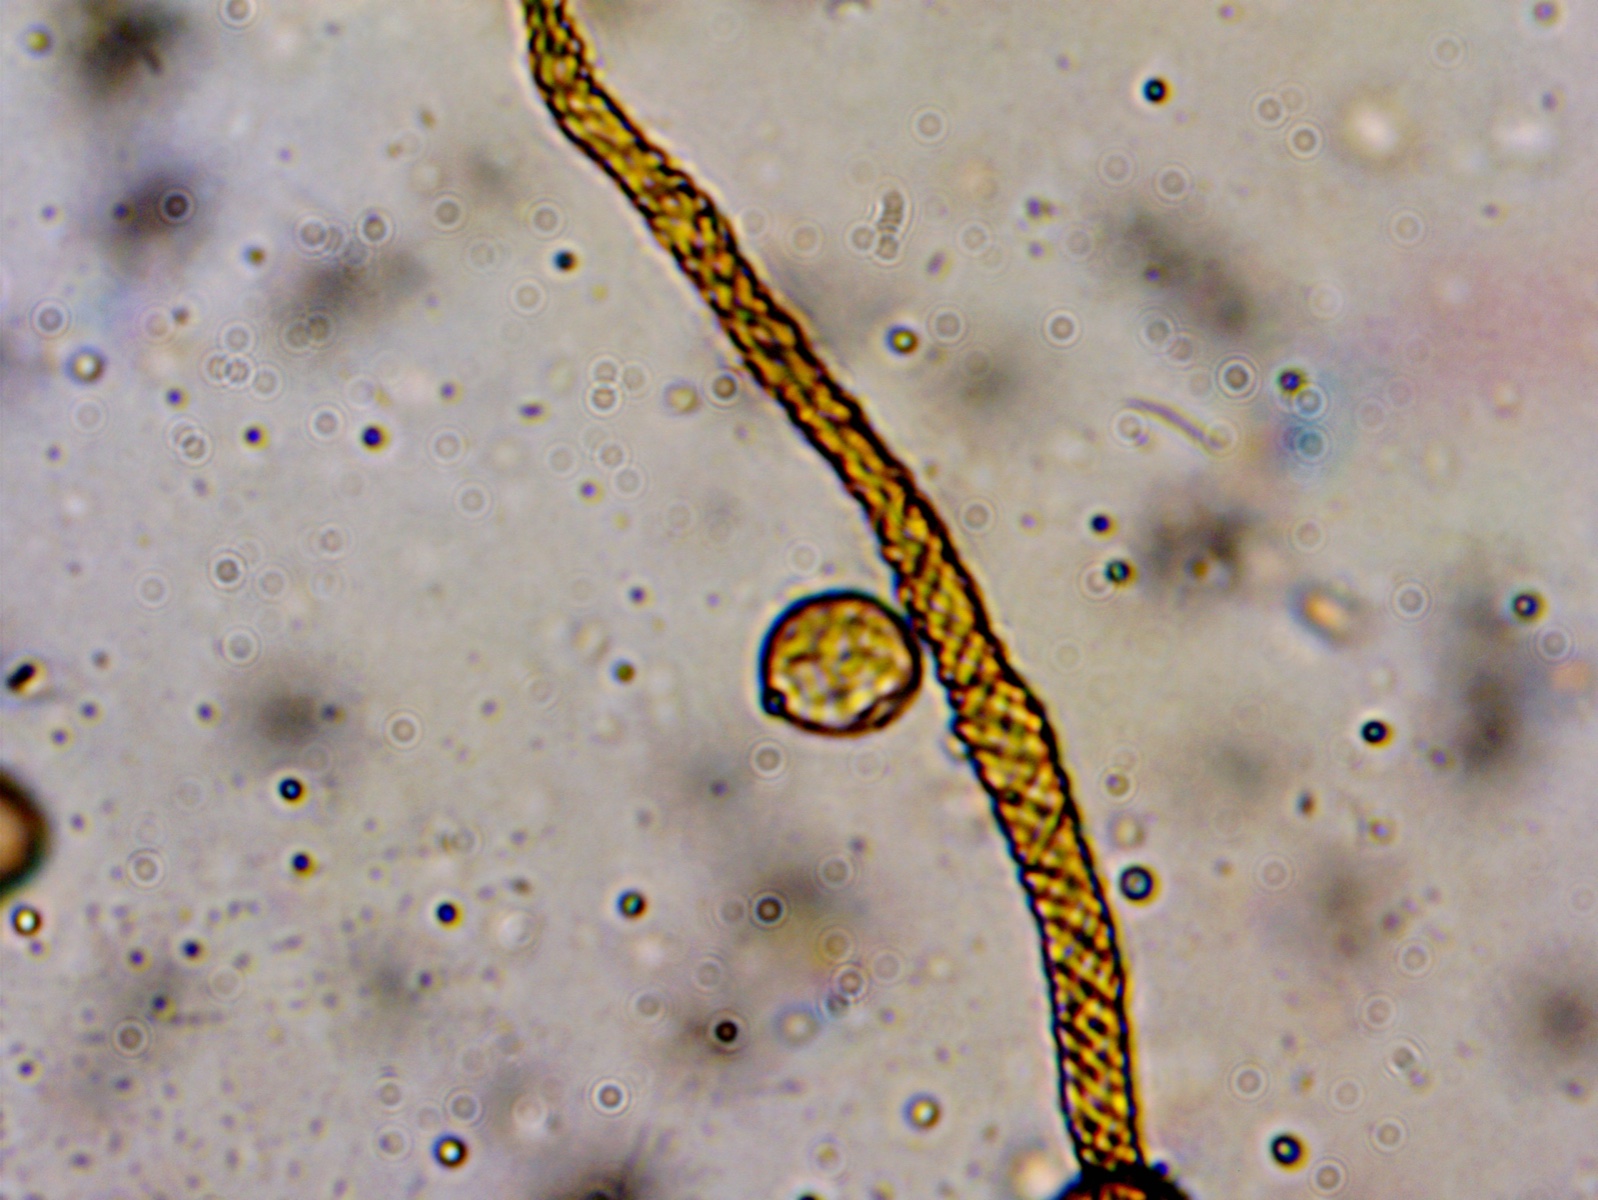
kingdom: Protozoa
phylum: Mycetozoa
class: Myxomycetes
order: Trichiales
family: Trichiaceae
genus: Trichia
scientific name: Trichia
